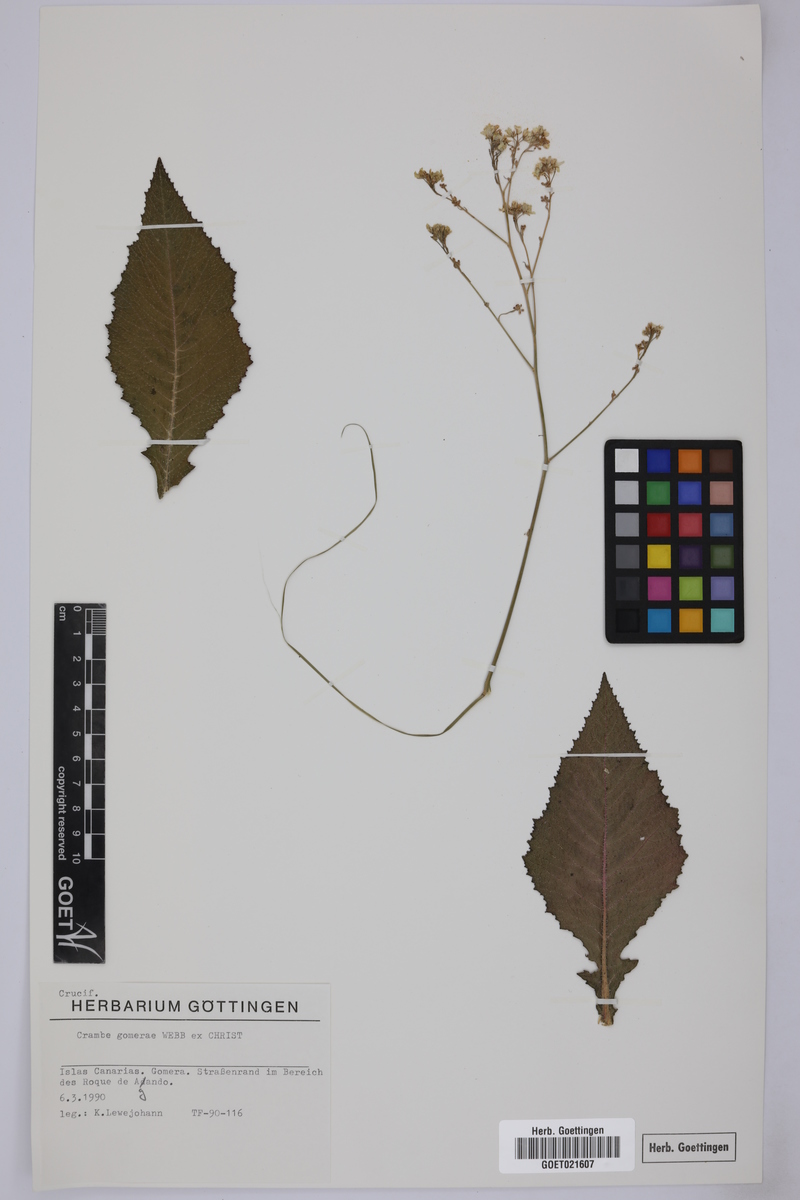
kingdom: Plantae
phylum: Tracheophyta
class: Magnoliopsida
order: Brassicales
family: Brassicaceae
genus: Crambe
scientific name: Crambe gomeraea
